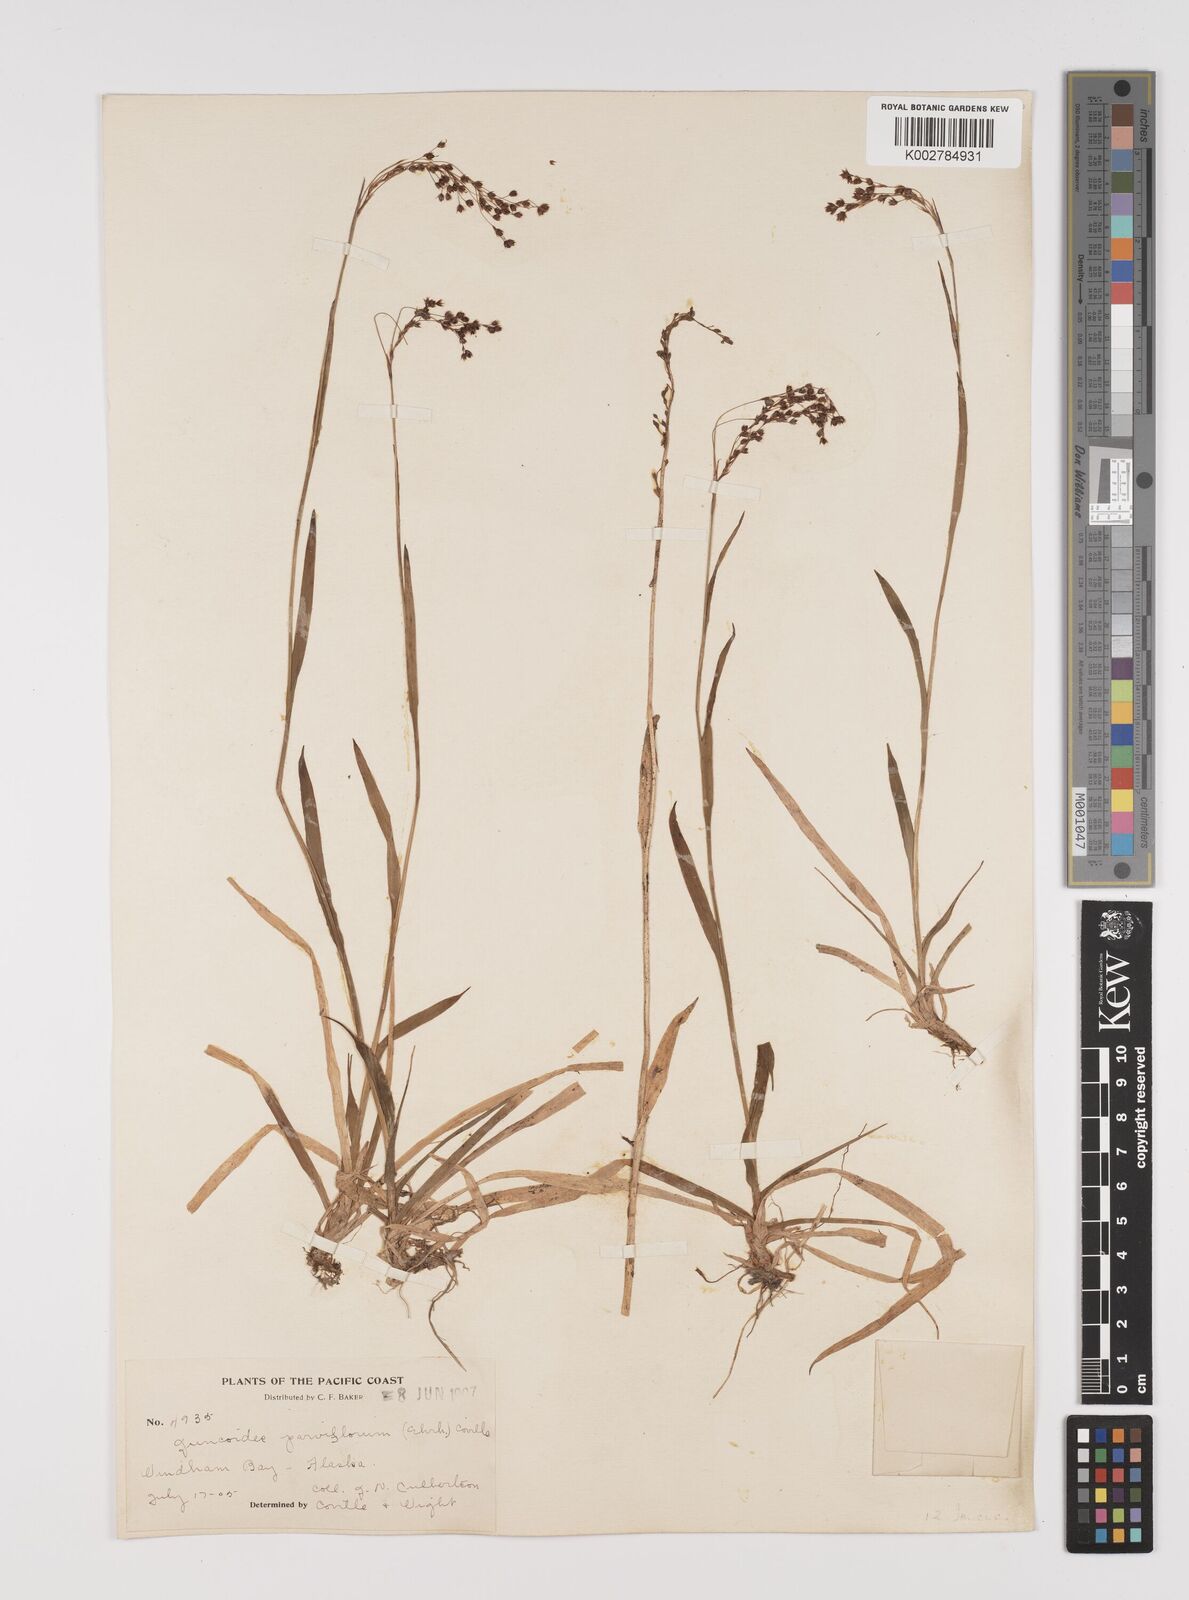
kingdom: Plantae
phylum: Tracheophyta
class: Liliopsida
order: Poales
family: Juncaceae
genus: Luzula
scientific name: Luzula parviflora
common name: Millet woodrush
